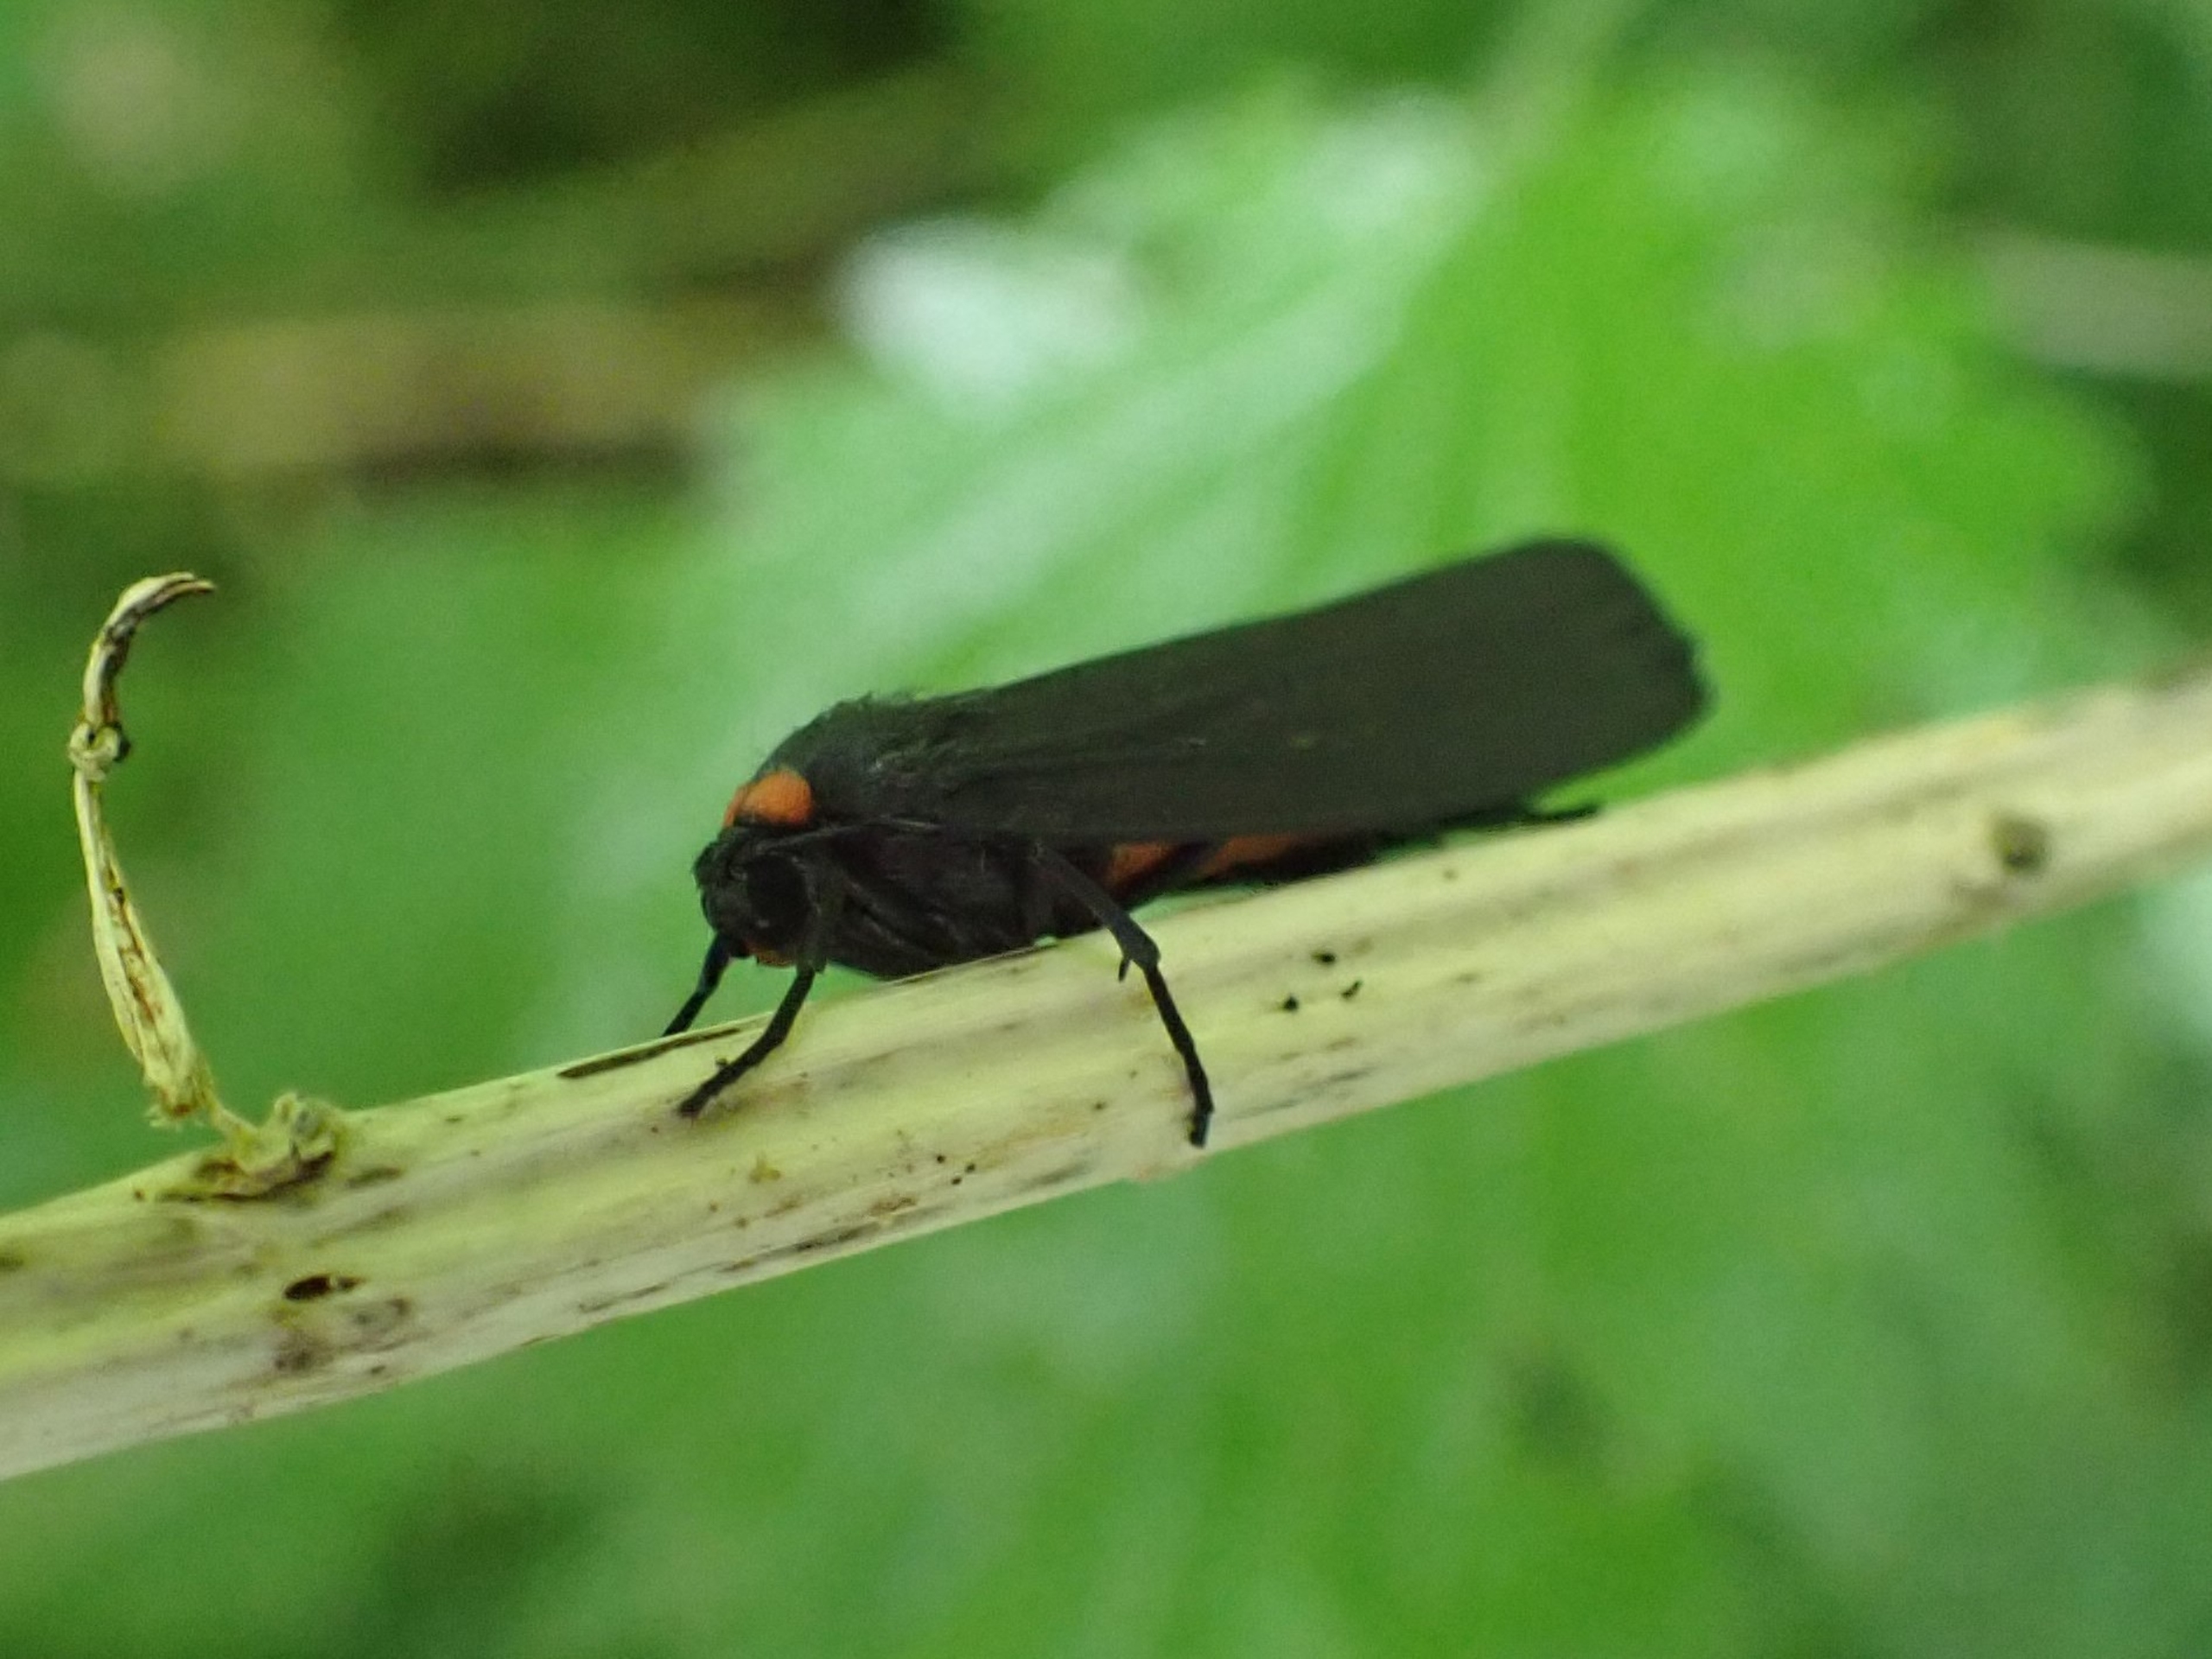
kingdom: Animalia
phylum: Arthropoda
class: Insecta
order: Lepidoptera
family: Erebidae
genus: Atolmis
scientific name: Atolmis rubricollis
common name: Blodnakke
